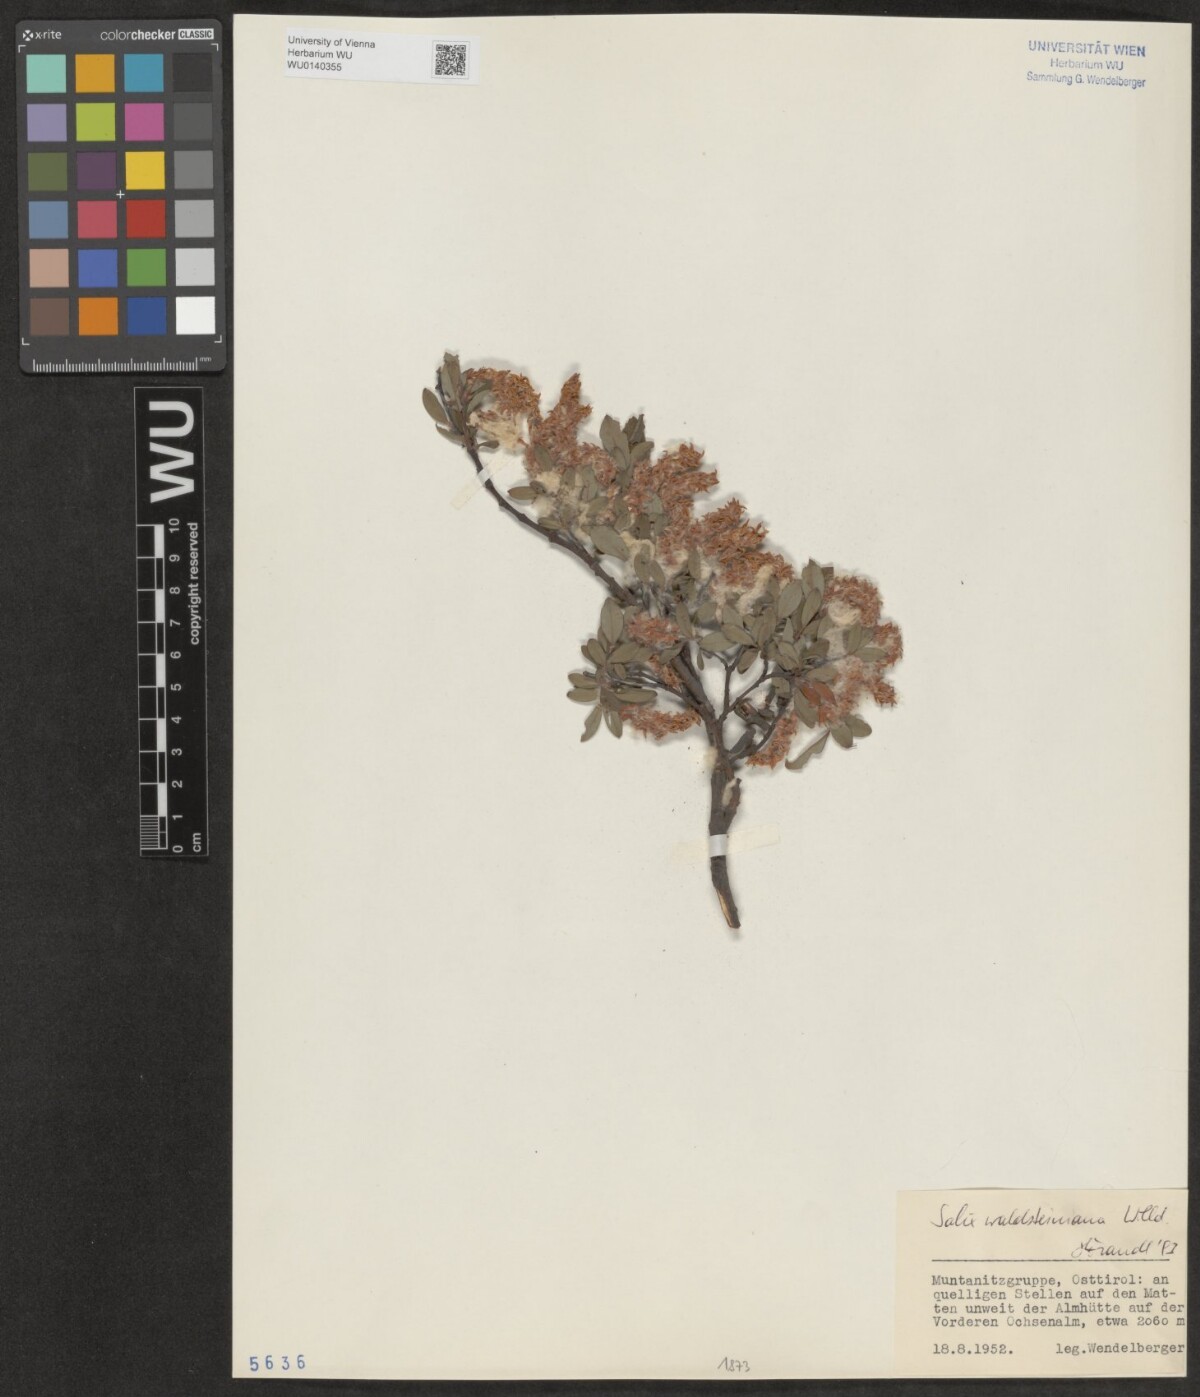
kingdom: Plantae
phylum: Tracheophyta
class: Magnoliopsida
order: Malpighiales
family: Salicaceae
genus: Salix
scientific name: Salix waldsteiniana
